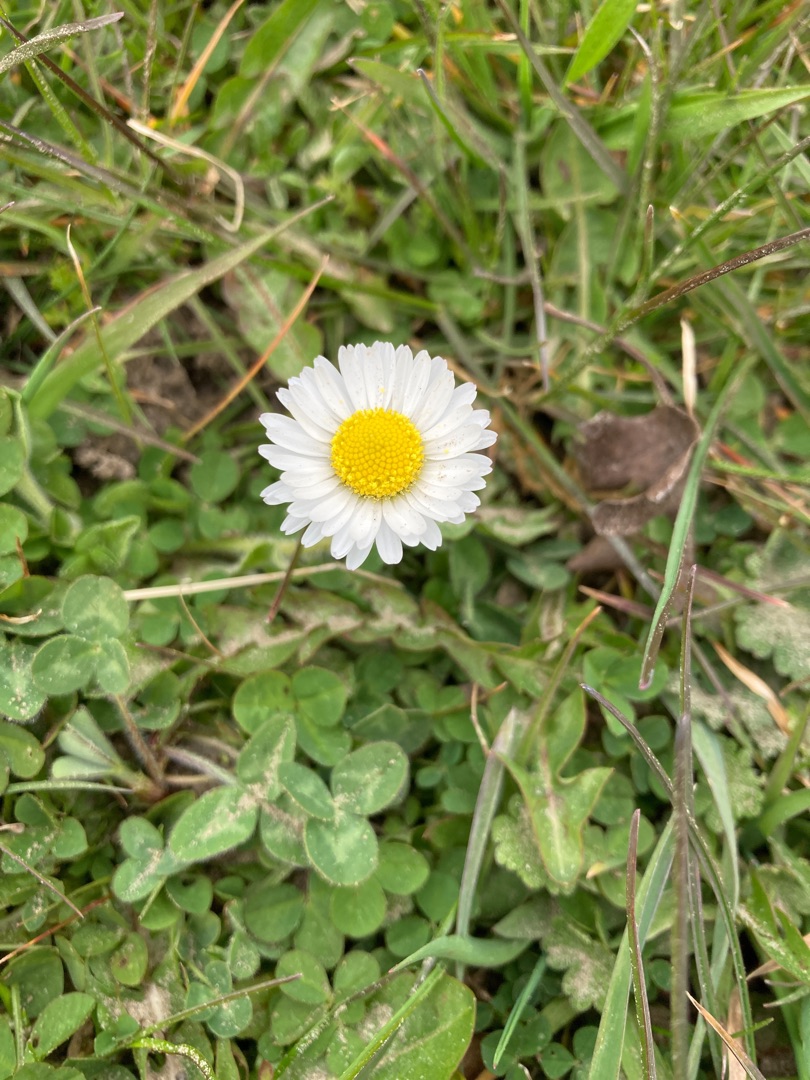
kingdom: Plantae
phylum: Tracheophyta
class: Magnoliopsida
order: Asterales
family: Asteraceae
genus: Bellis
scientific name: Bellis perennis
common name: Tusindfryd
